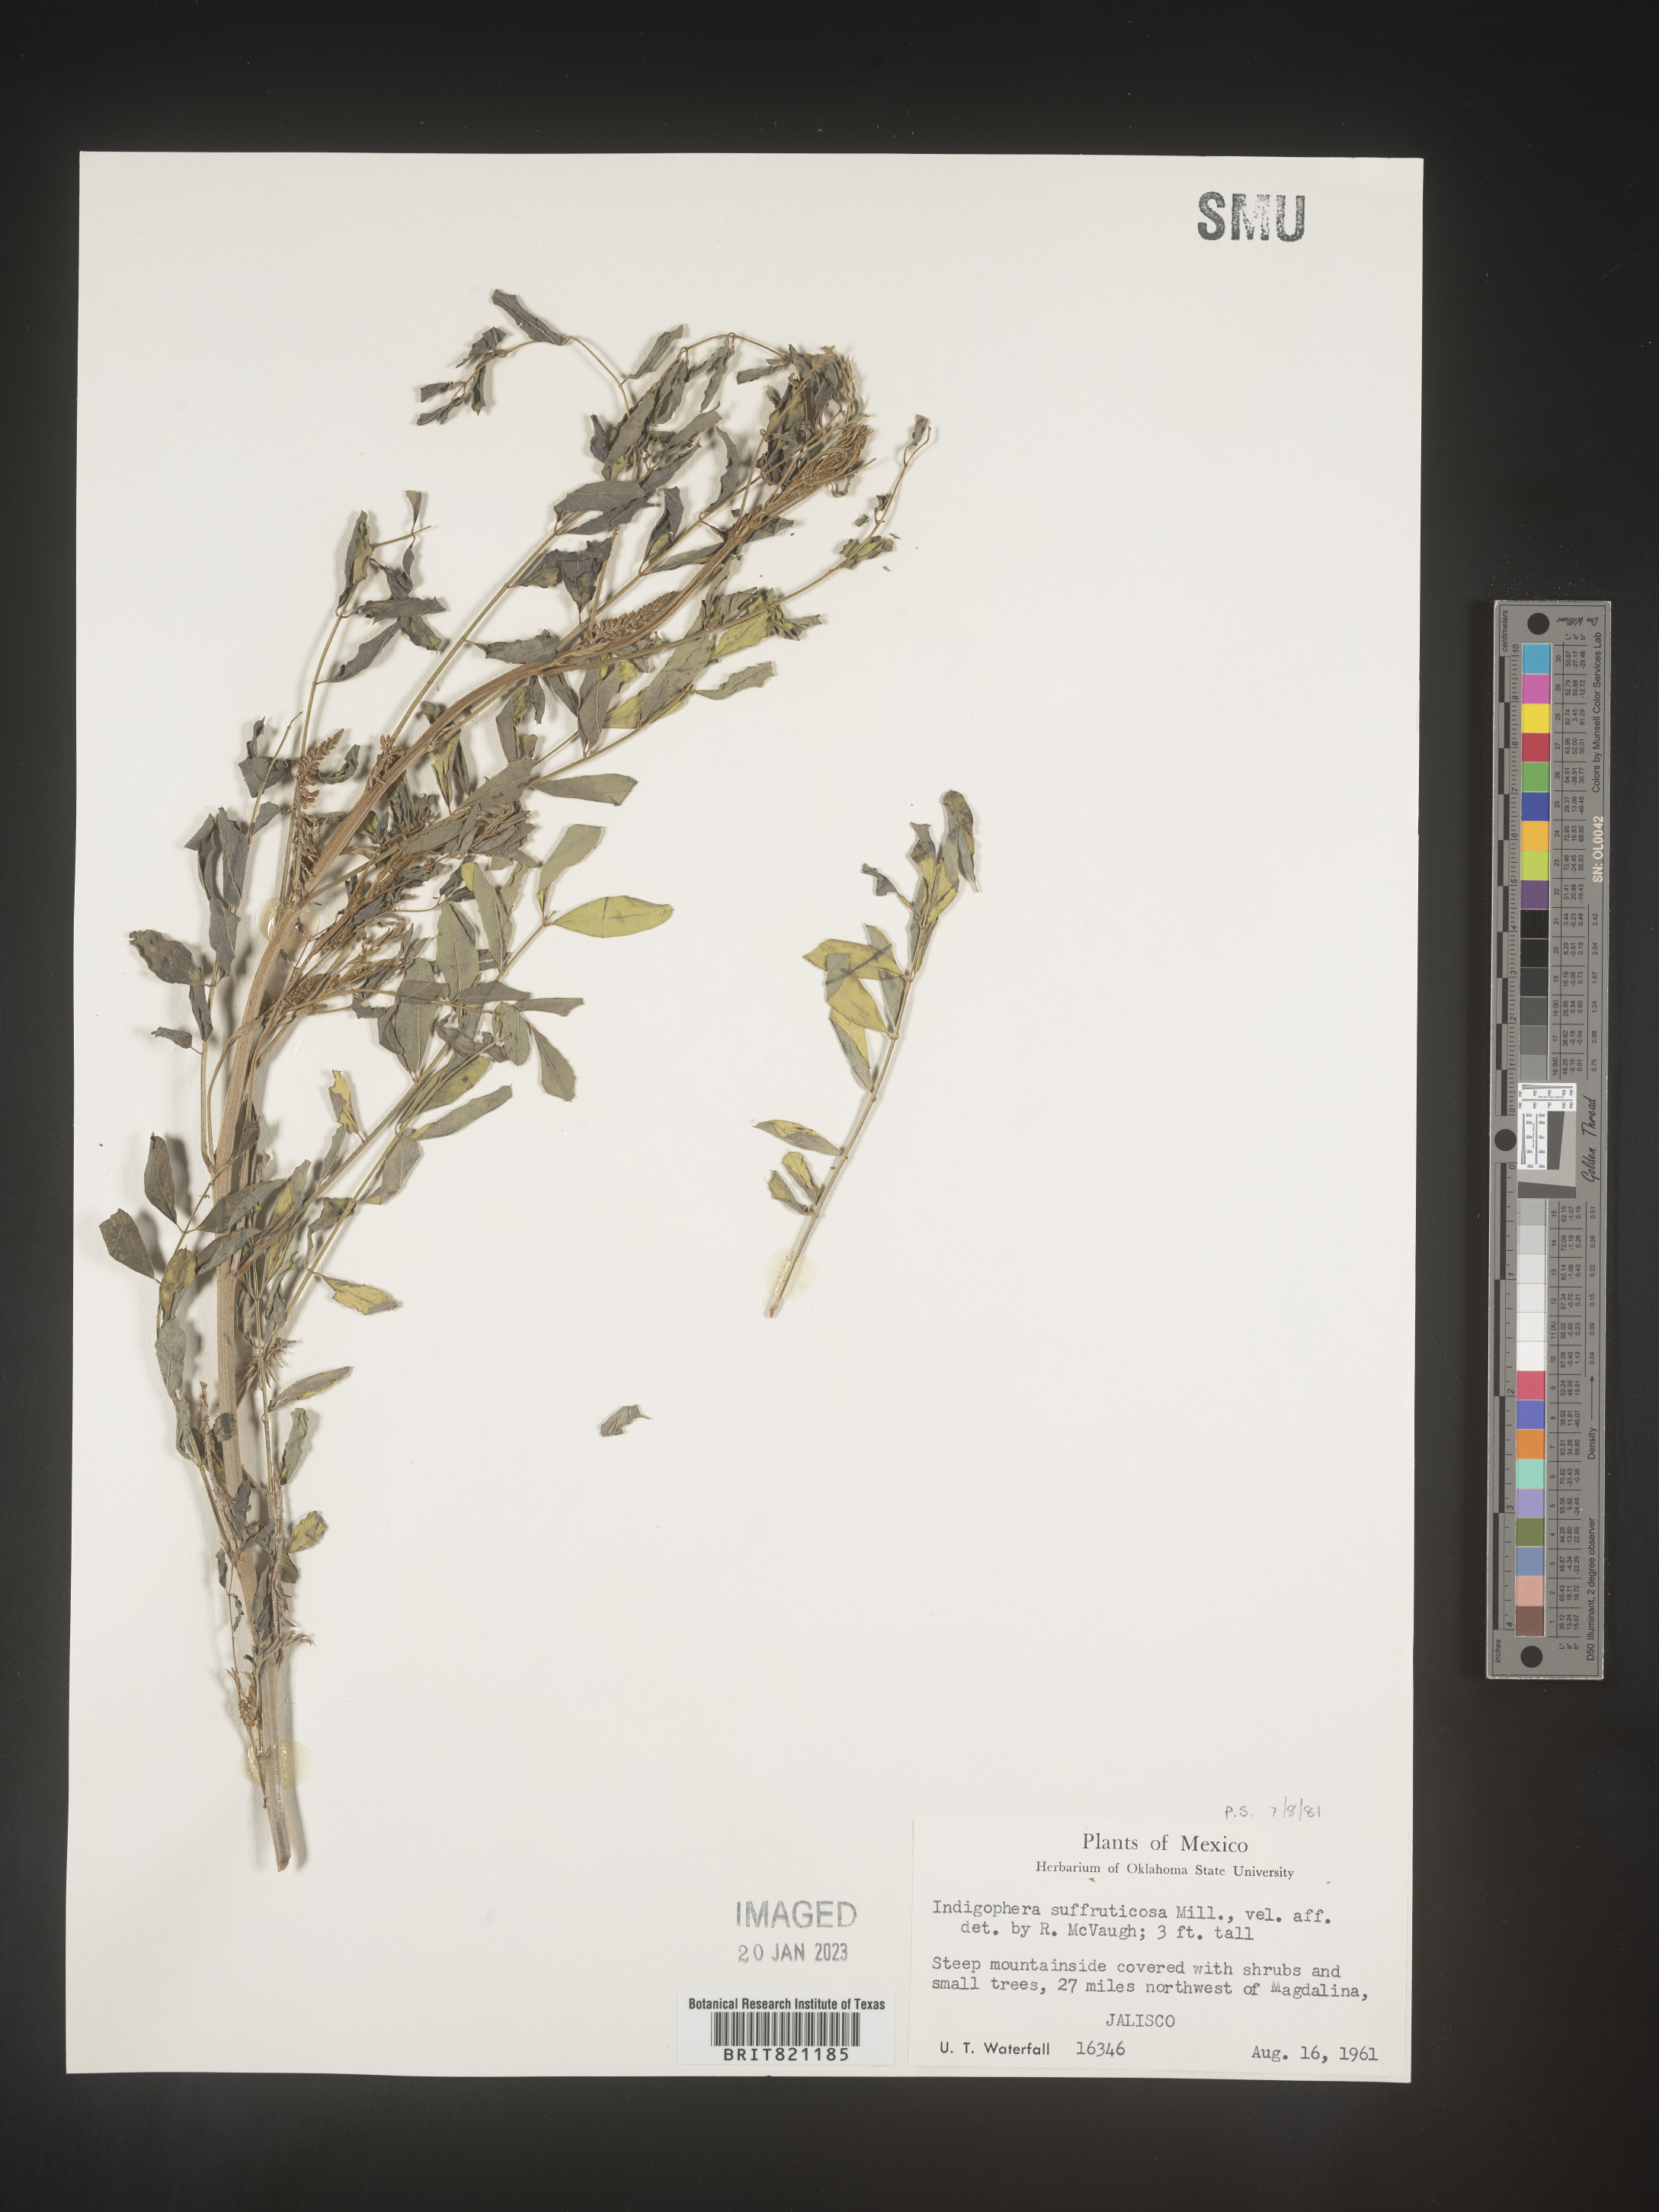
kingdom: Plantae
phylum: Tracheophyta
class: Magnoliopsida
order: Fabales
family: Fabaceae
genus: Indigofera
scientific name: Indigofera
